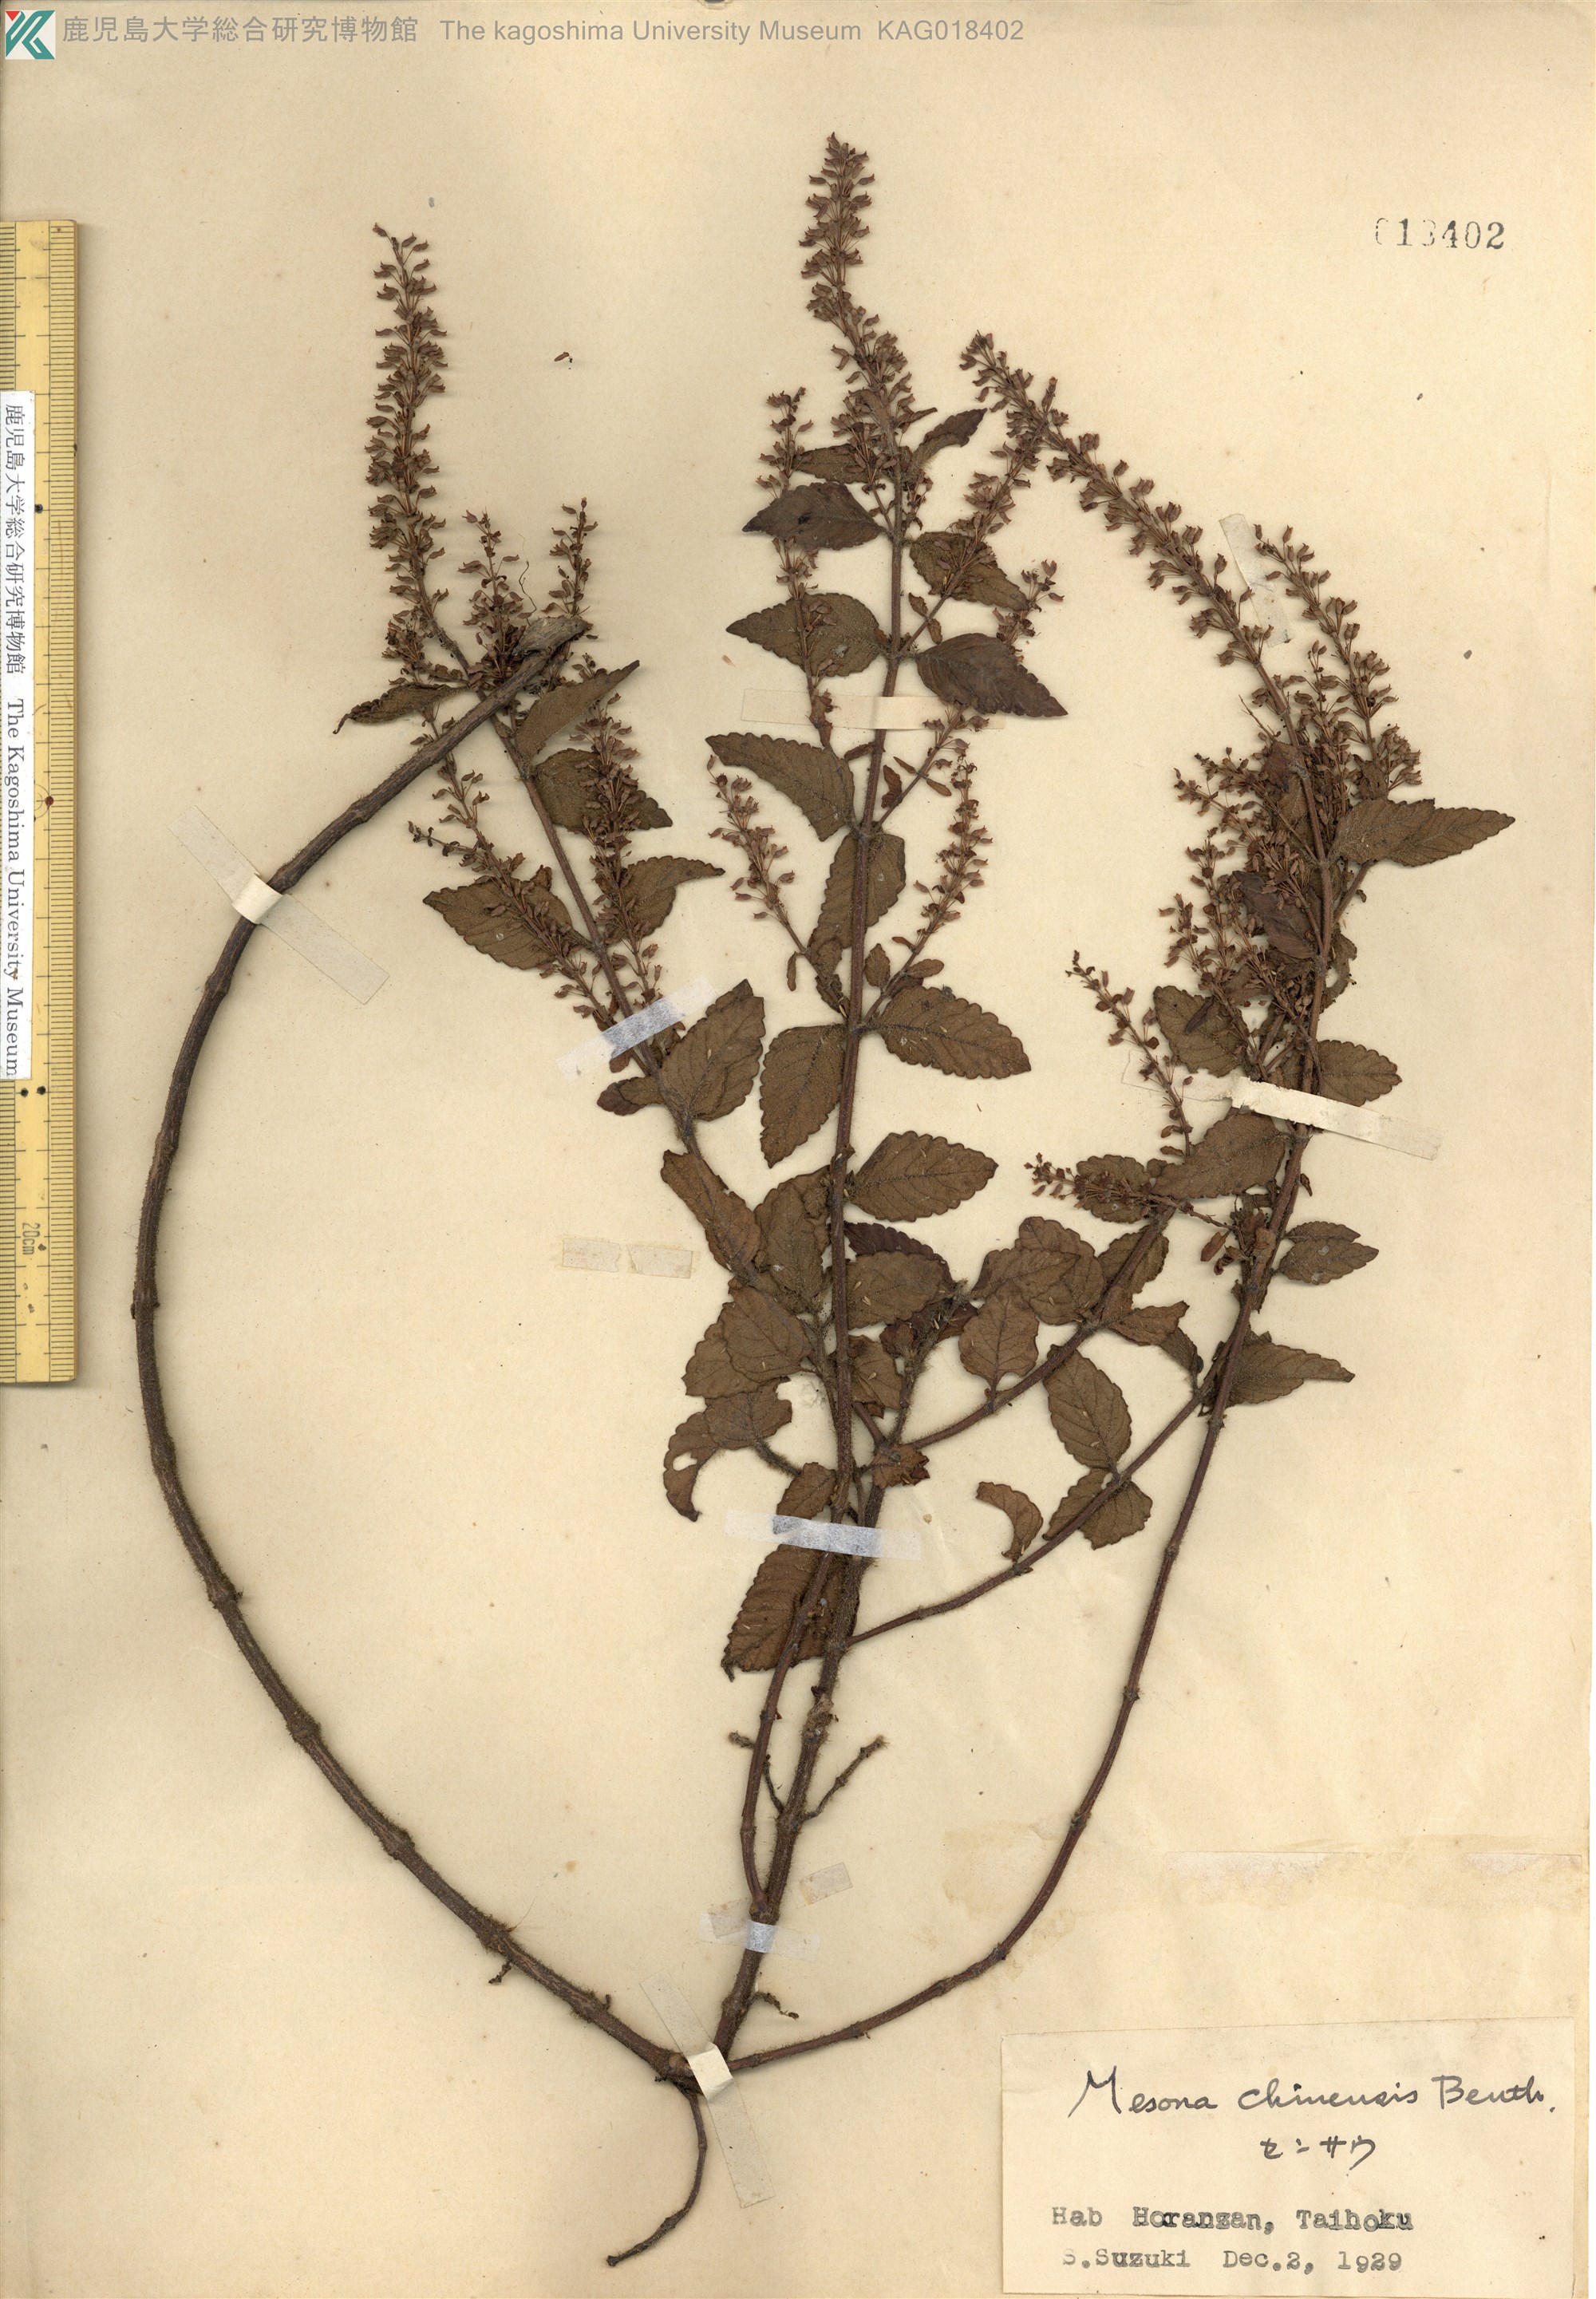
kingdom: Plantae
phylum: Tracheophyta
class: Magnoliopsida
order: Lamiales
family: Lamiaceae
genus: Platostoma
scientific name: Platostoma palustre
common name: Black cincau
